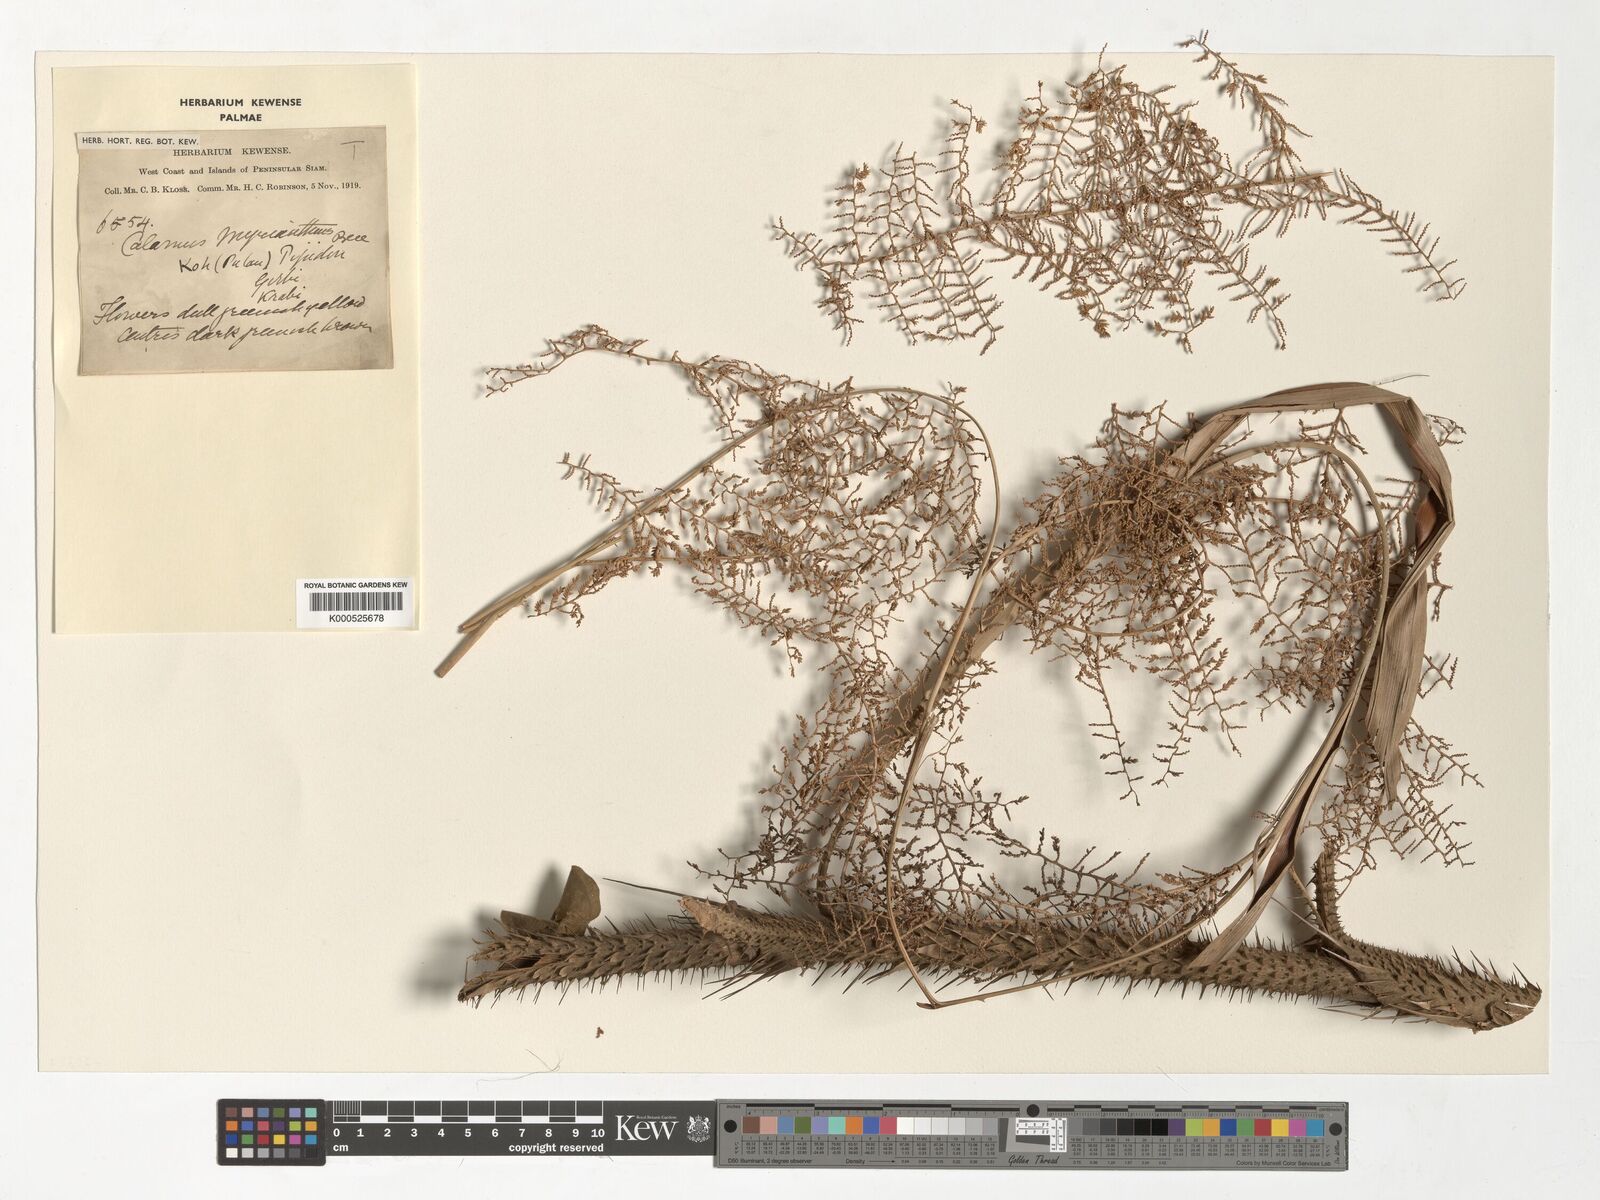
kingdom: Plantae
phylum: Tracheophyta
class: Liliopsida
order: Arecales
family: Arecaceae
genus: Calamus
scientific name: Calamus myrianthus
